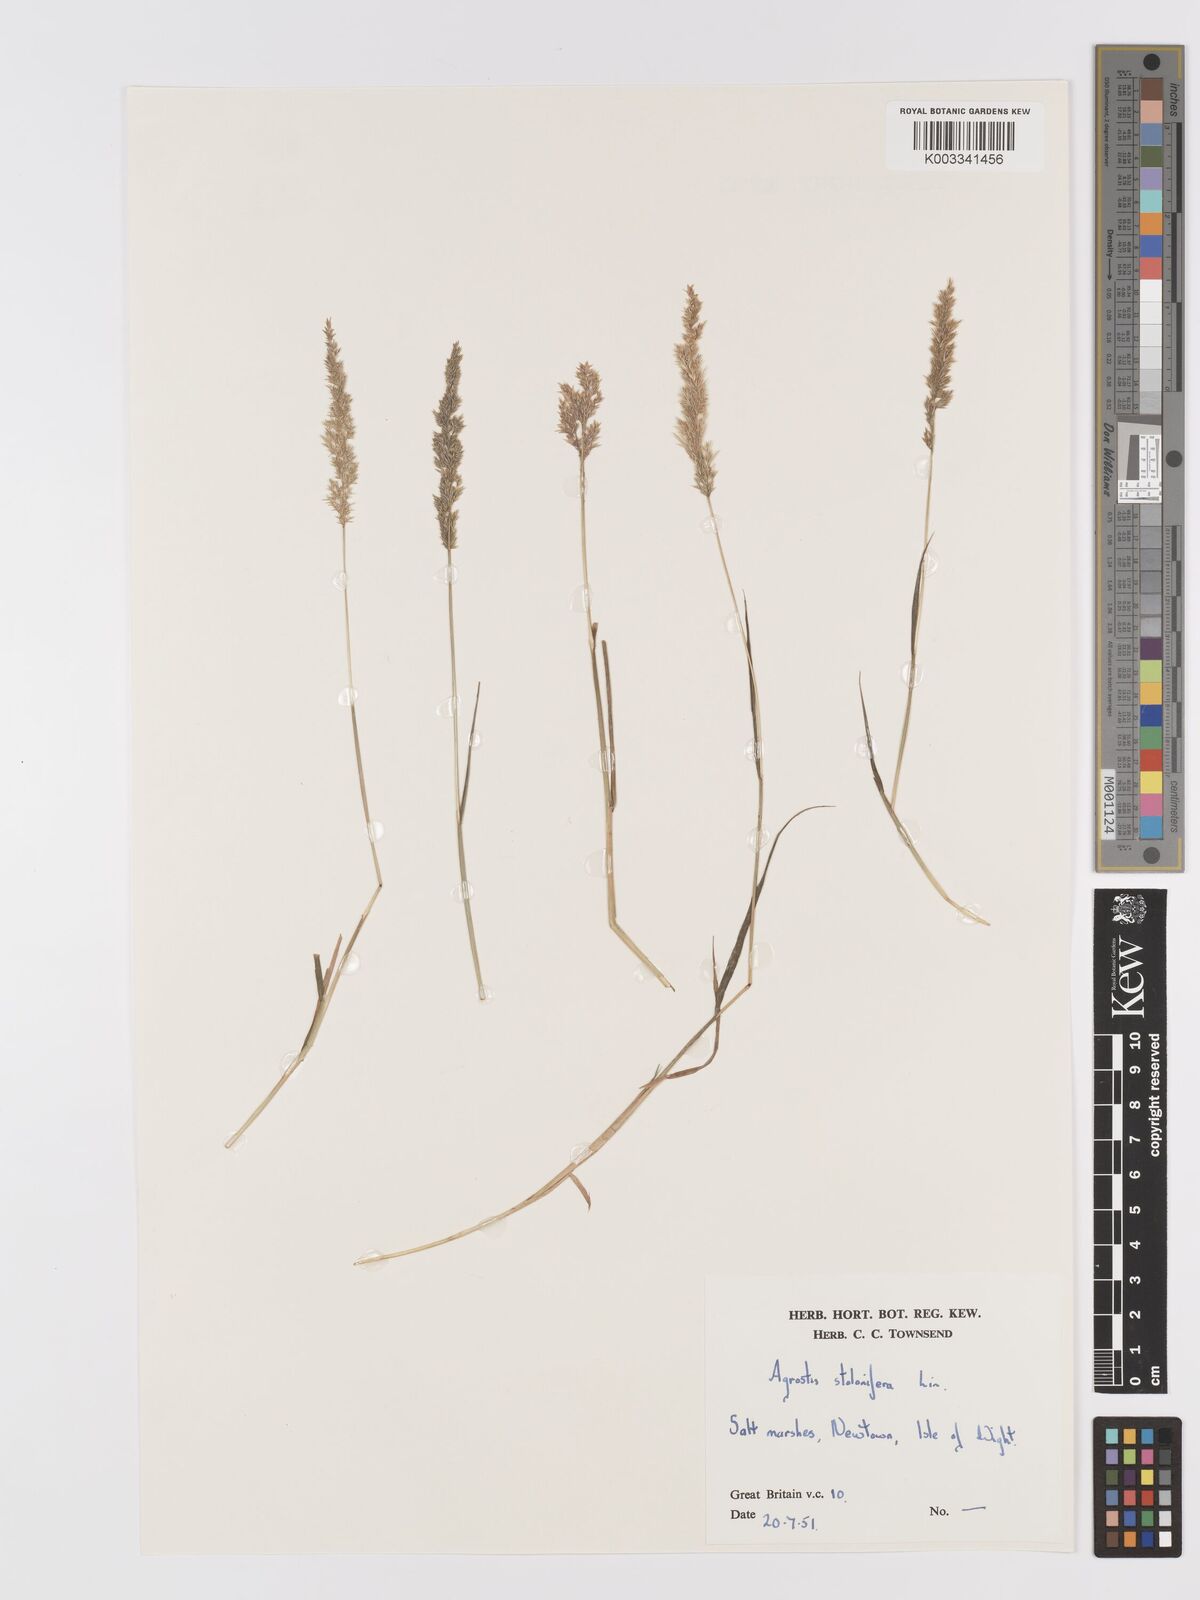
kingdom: Plantae
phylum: Tracheophyta
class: Liliopsida
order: Poales
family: Poaceae
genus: Agrostis
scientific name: Agrostis stolonifera
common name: Creeping bentgrass
